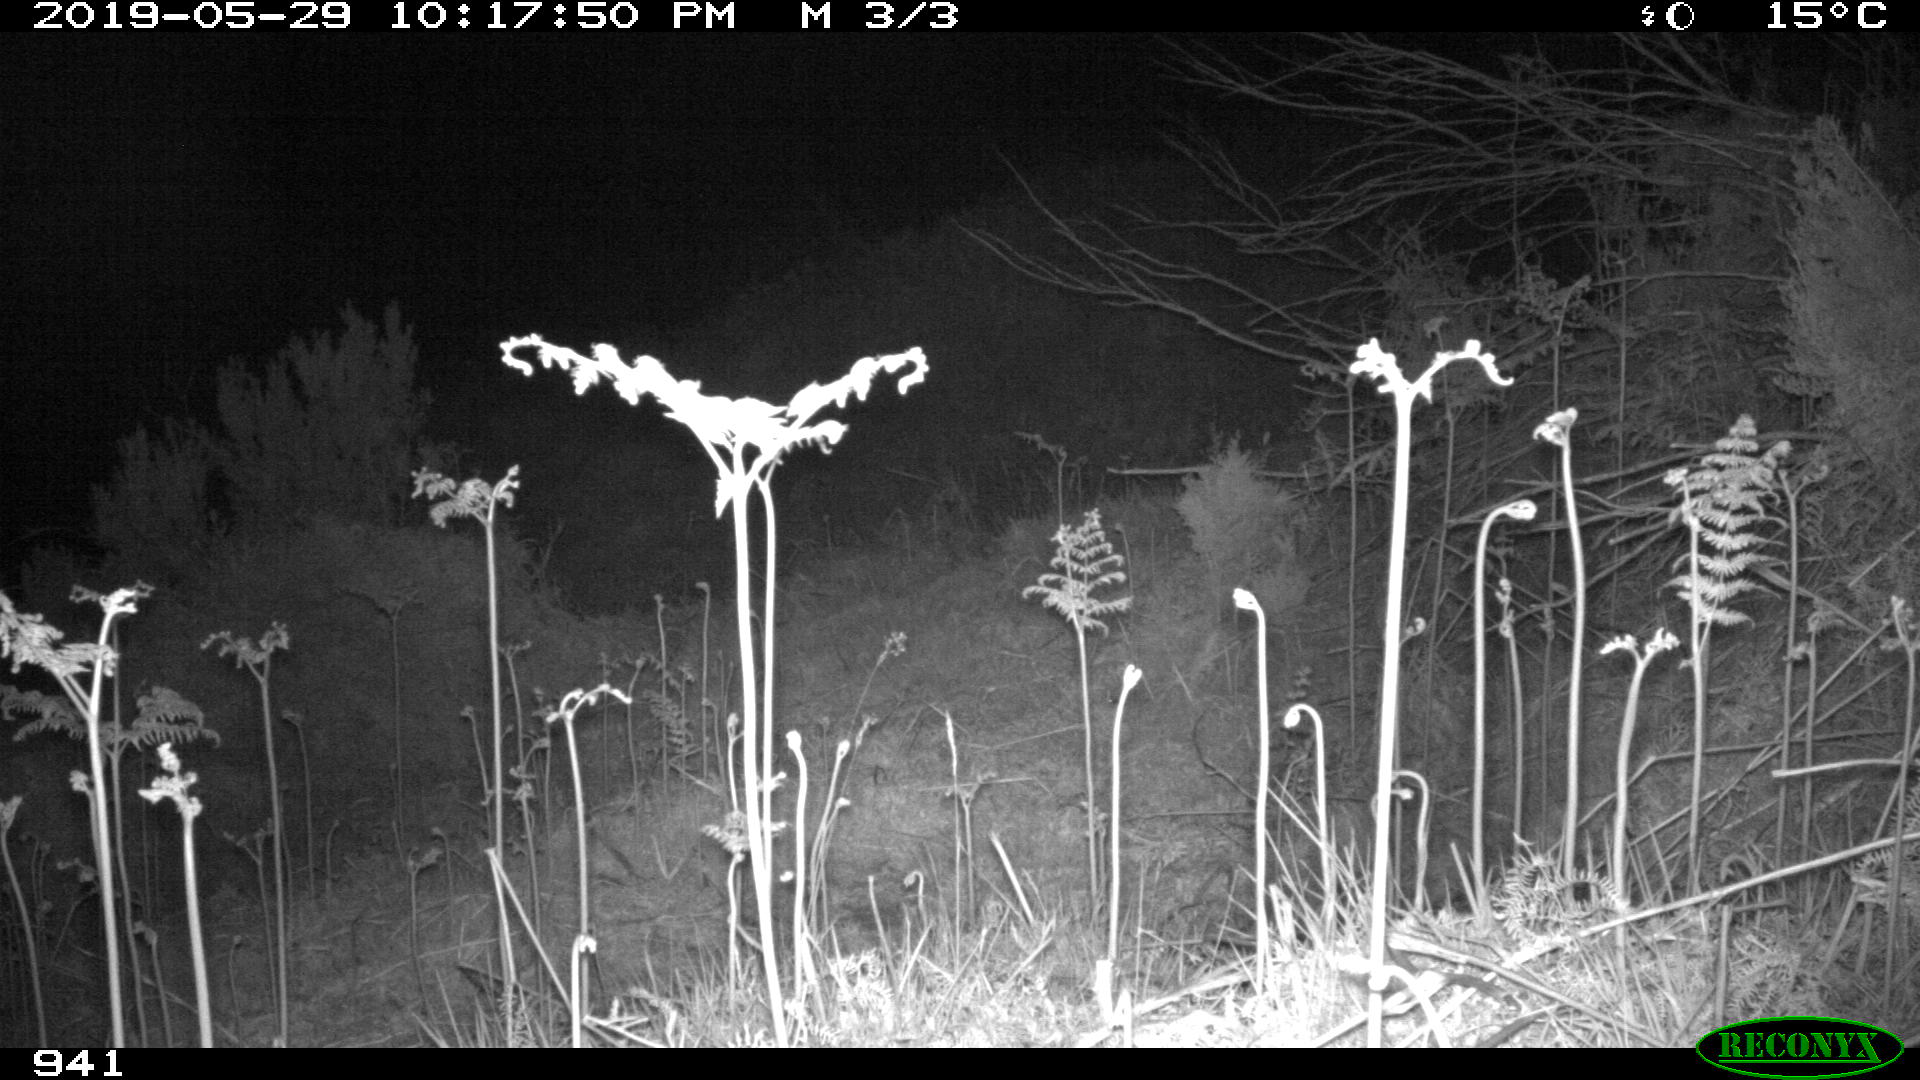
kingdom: Animalia
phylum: Chordata
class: Mammalia
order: Artiodactyla
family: Cervidae
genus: Capreolus
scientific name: Capreolus capreolus
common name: Western roe deer
